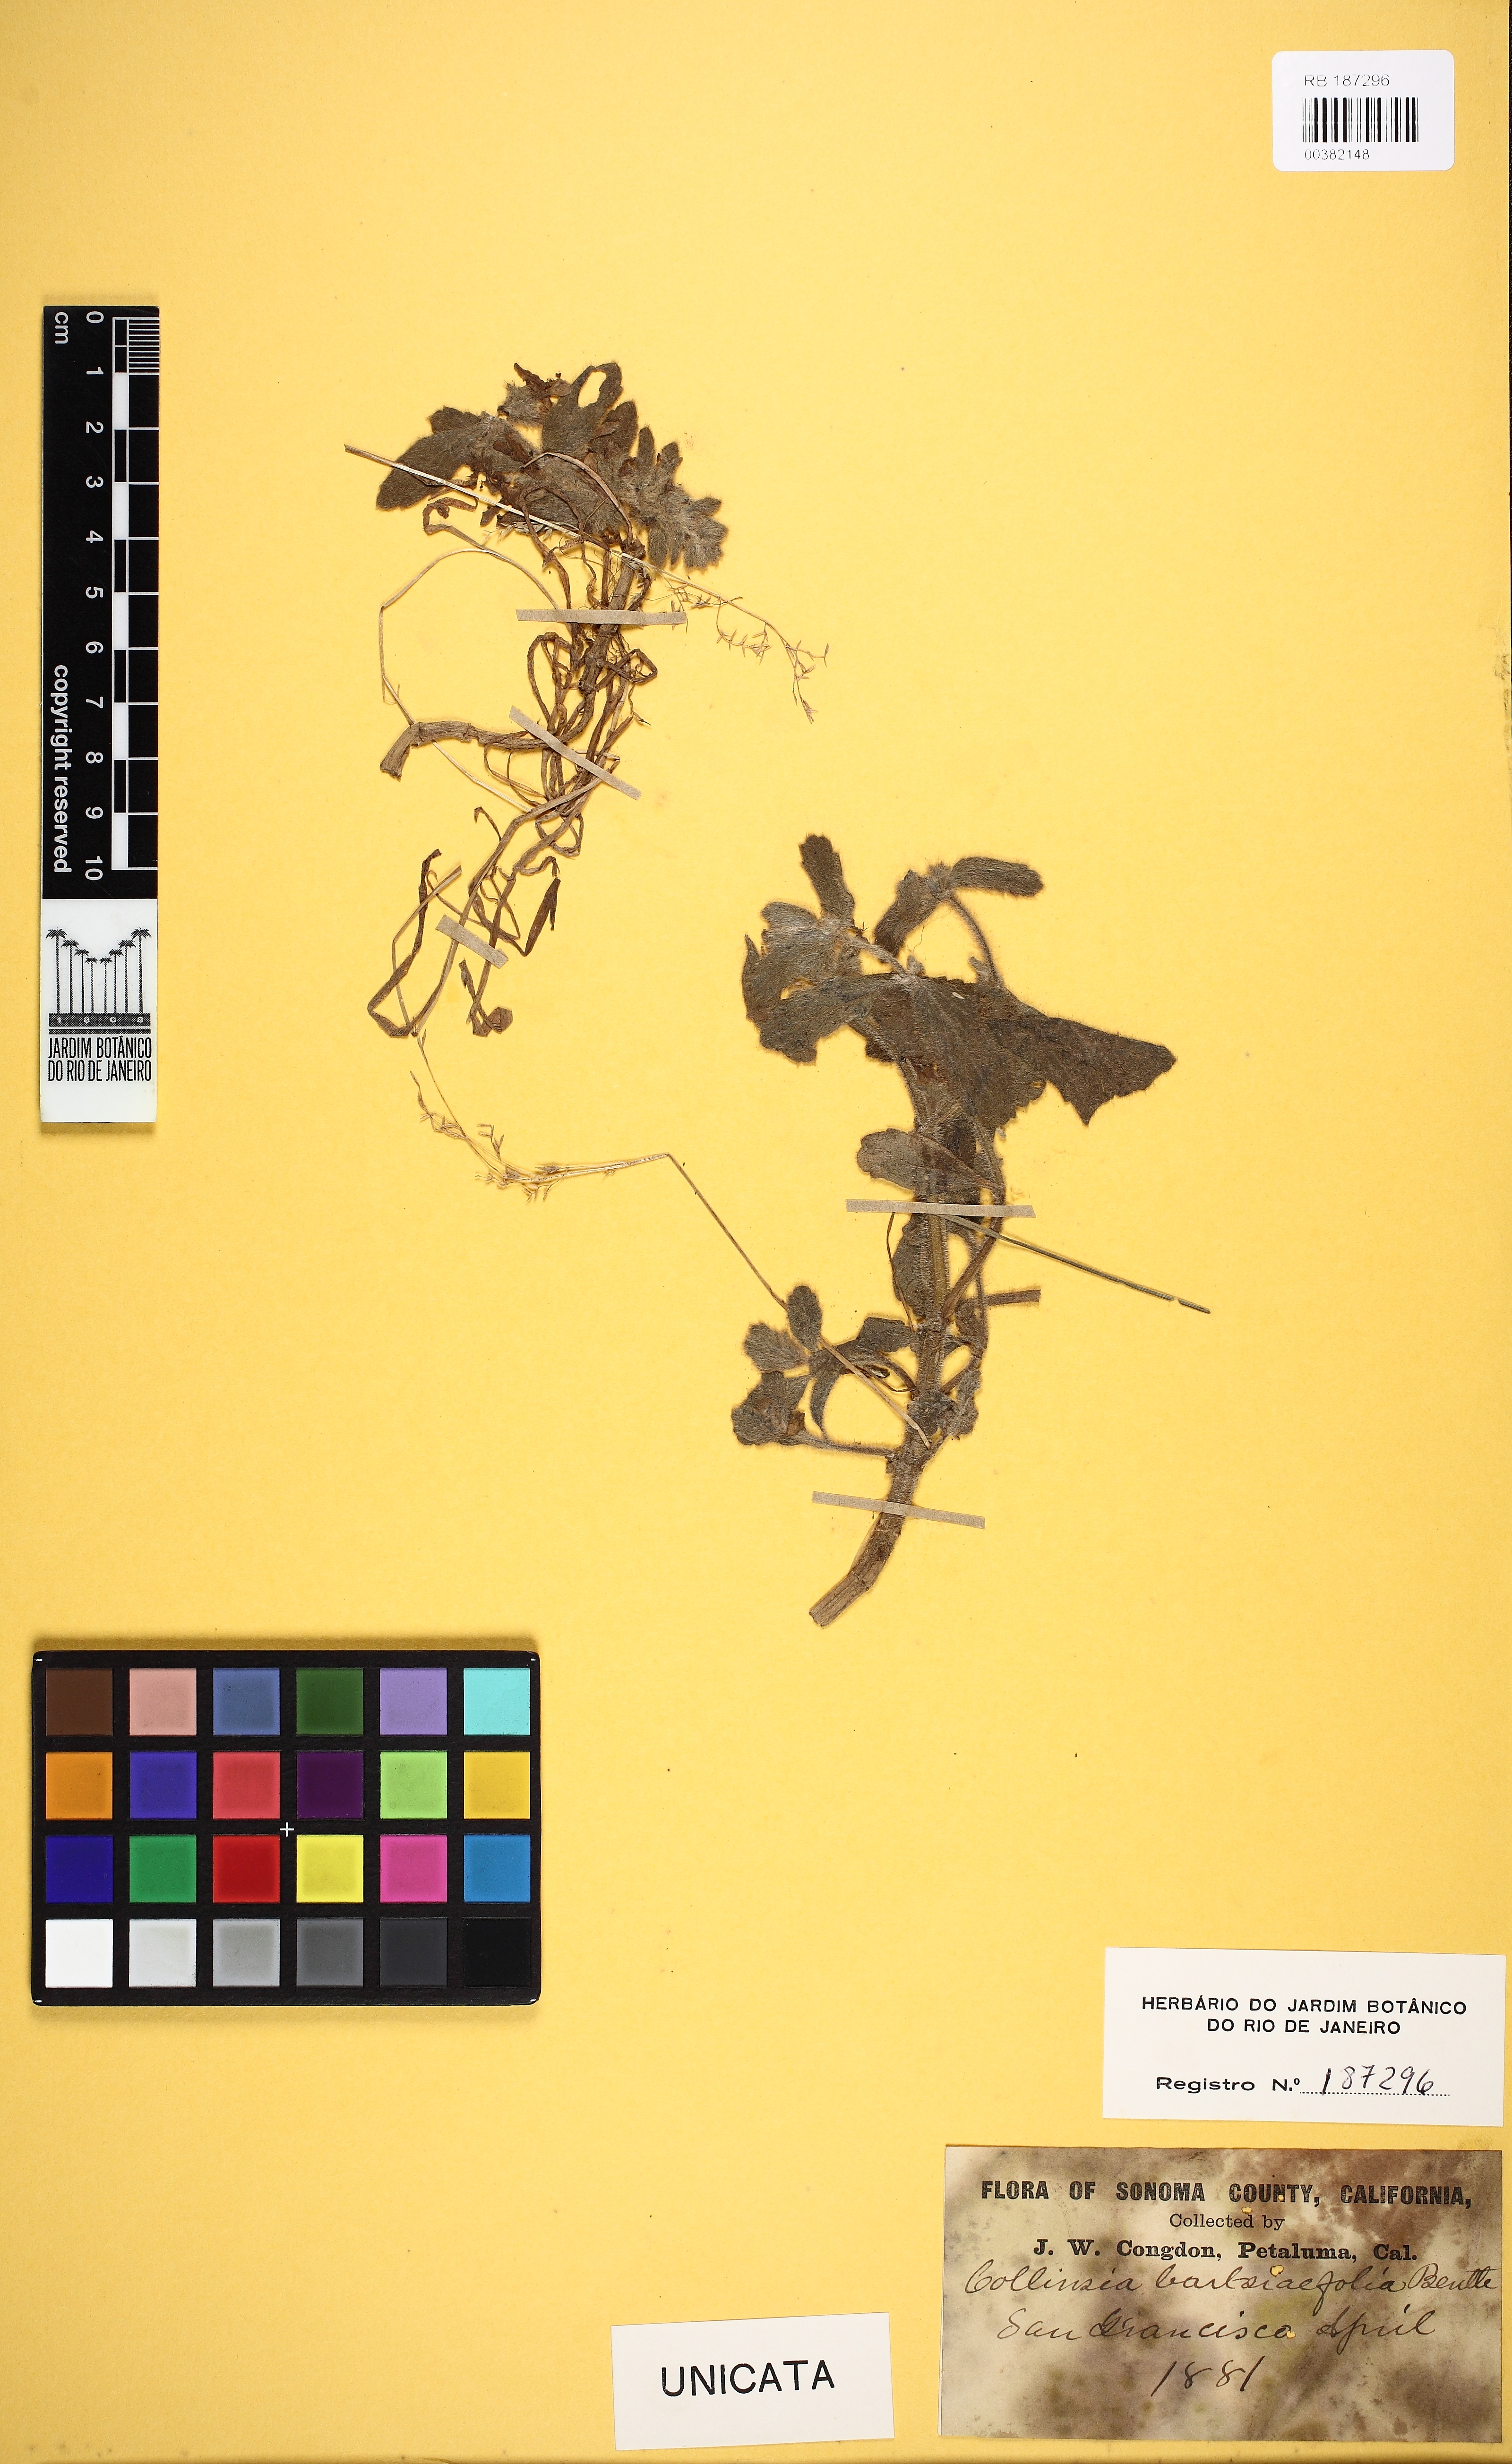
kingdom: Plantae
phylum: Tracheophyta
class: Magnoliopsida
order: Lamiales
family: Plantaginaceae
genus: Collinsia
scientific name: Collinsia bartsiifolia
